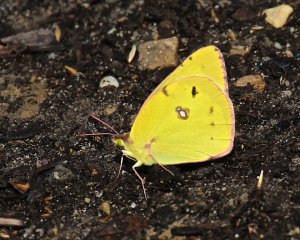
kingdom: Animalia
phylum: Arthropoda
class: Insecta
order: Lepidoptera
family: Pieridae
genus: Colias
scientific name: Colias eurytheme
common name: Orange Sulphur
